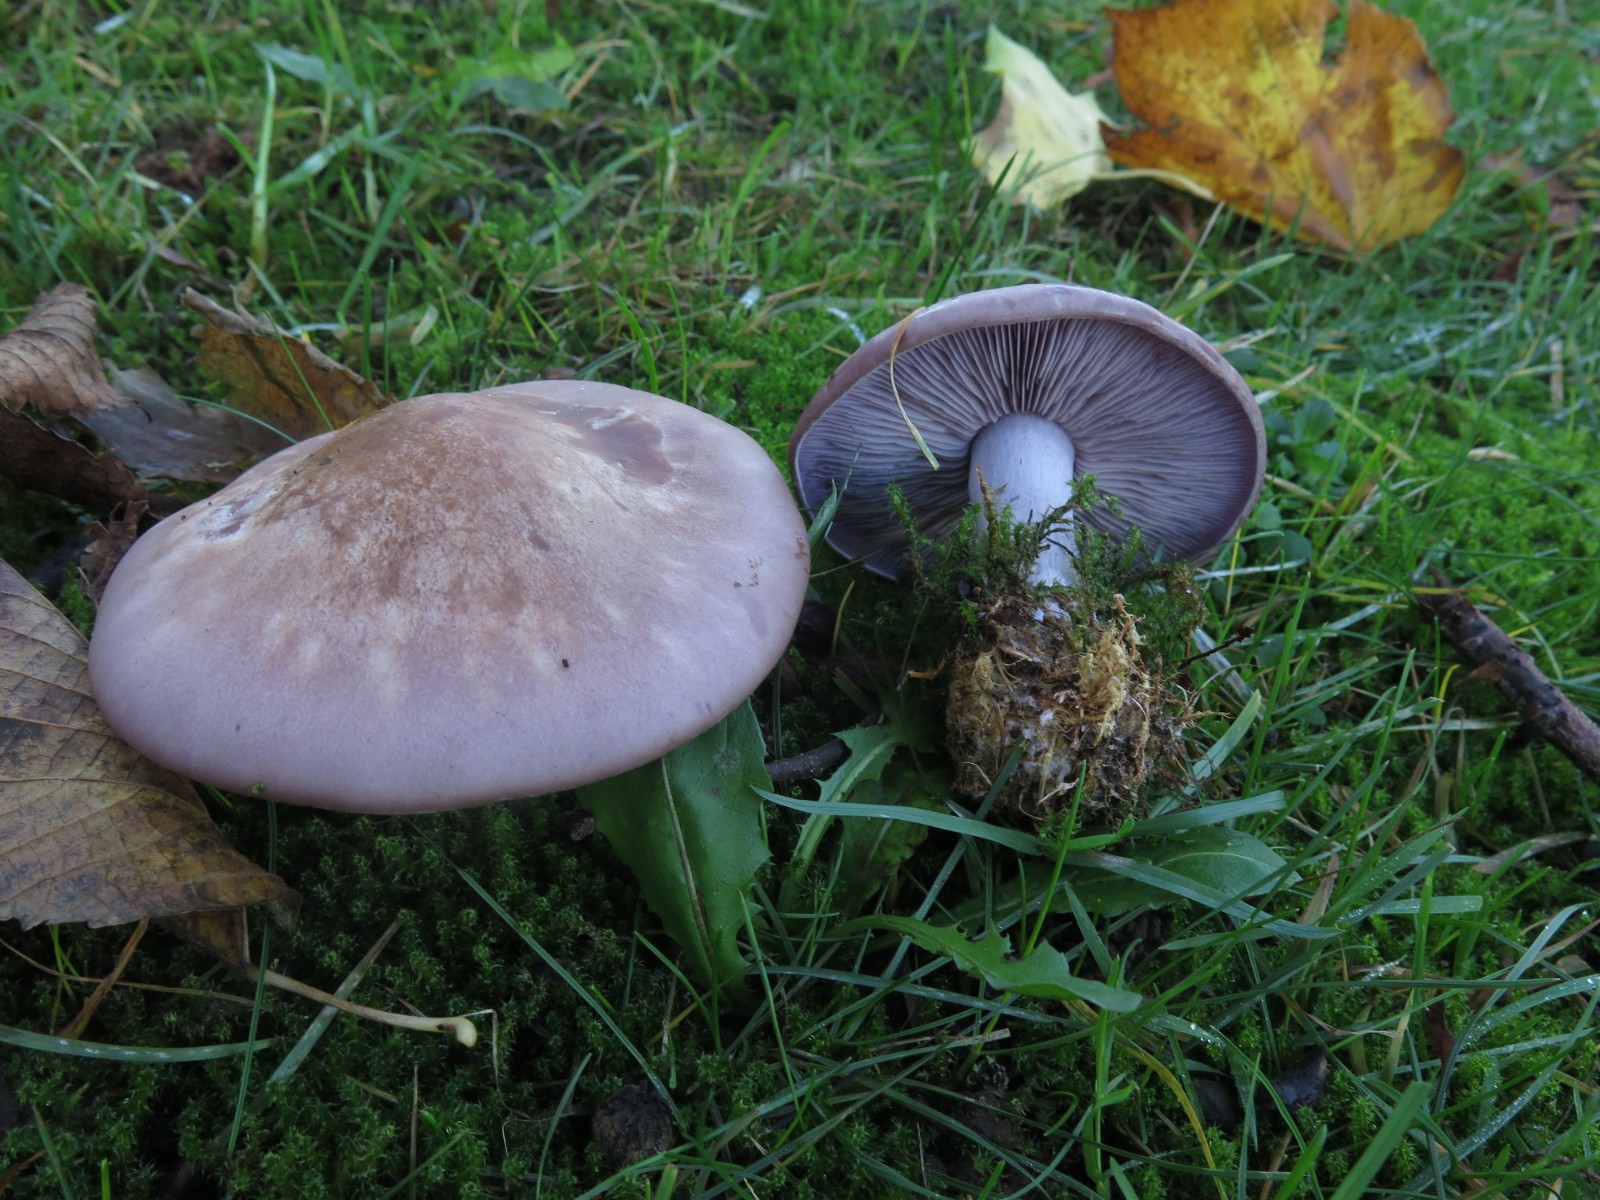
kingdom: Fungi
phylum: Basidiomycota
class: Agaricomycetes
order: Agaricales
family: Tricholomataceae
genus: Lepista
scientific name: Lepista nuda
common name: violet hekseringshat
